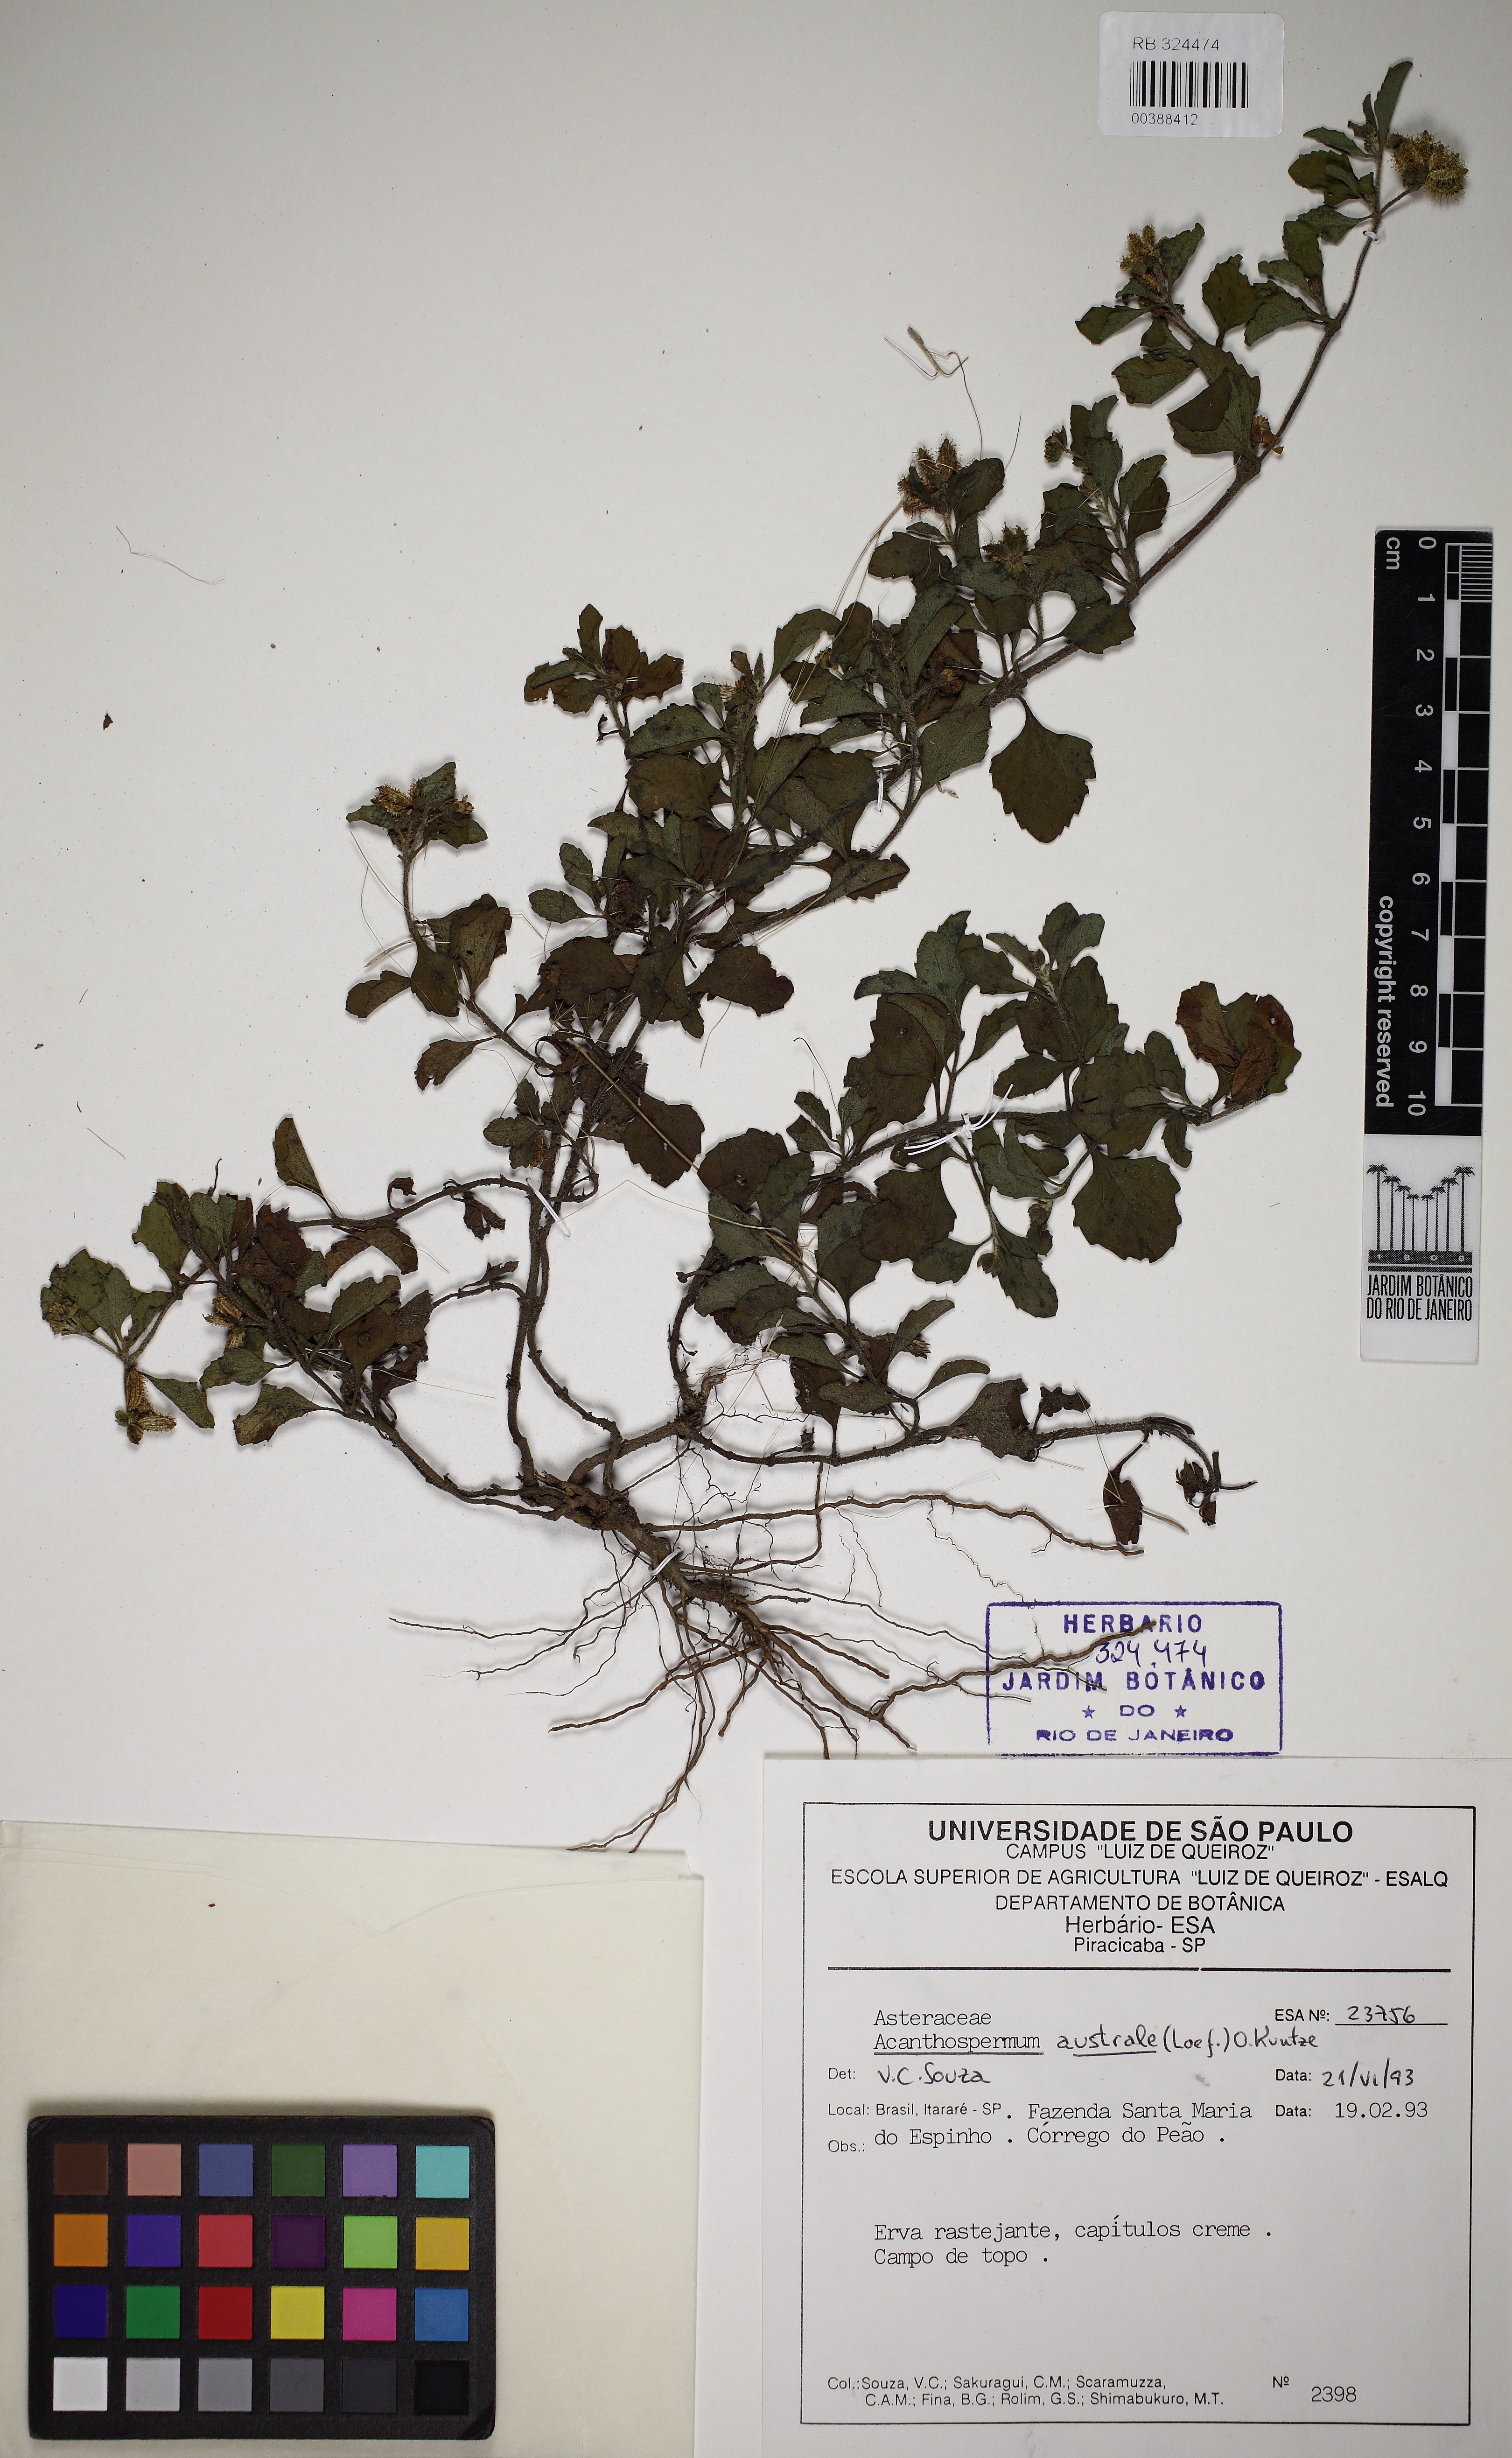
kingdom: Plantae
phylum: Tracheophyta
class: Magnoliopsida
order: Asterales
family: Asteraceae
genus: Acanthospermum
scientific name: Acanthospermum australe
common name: Paraguayan starbur
